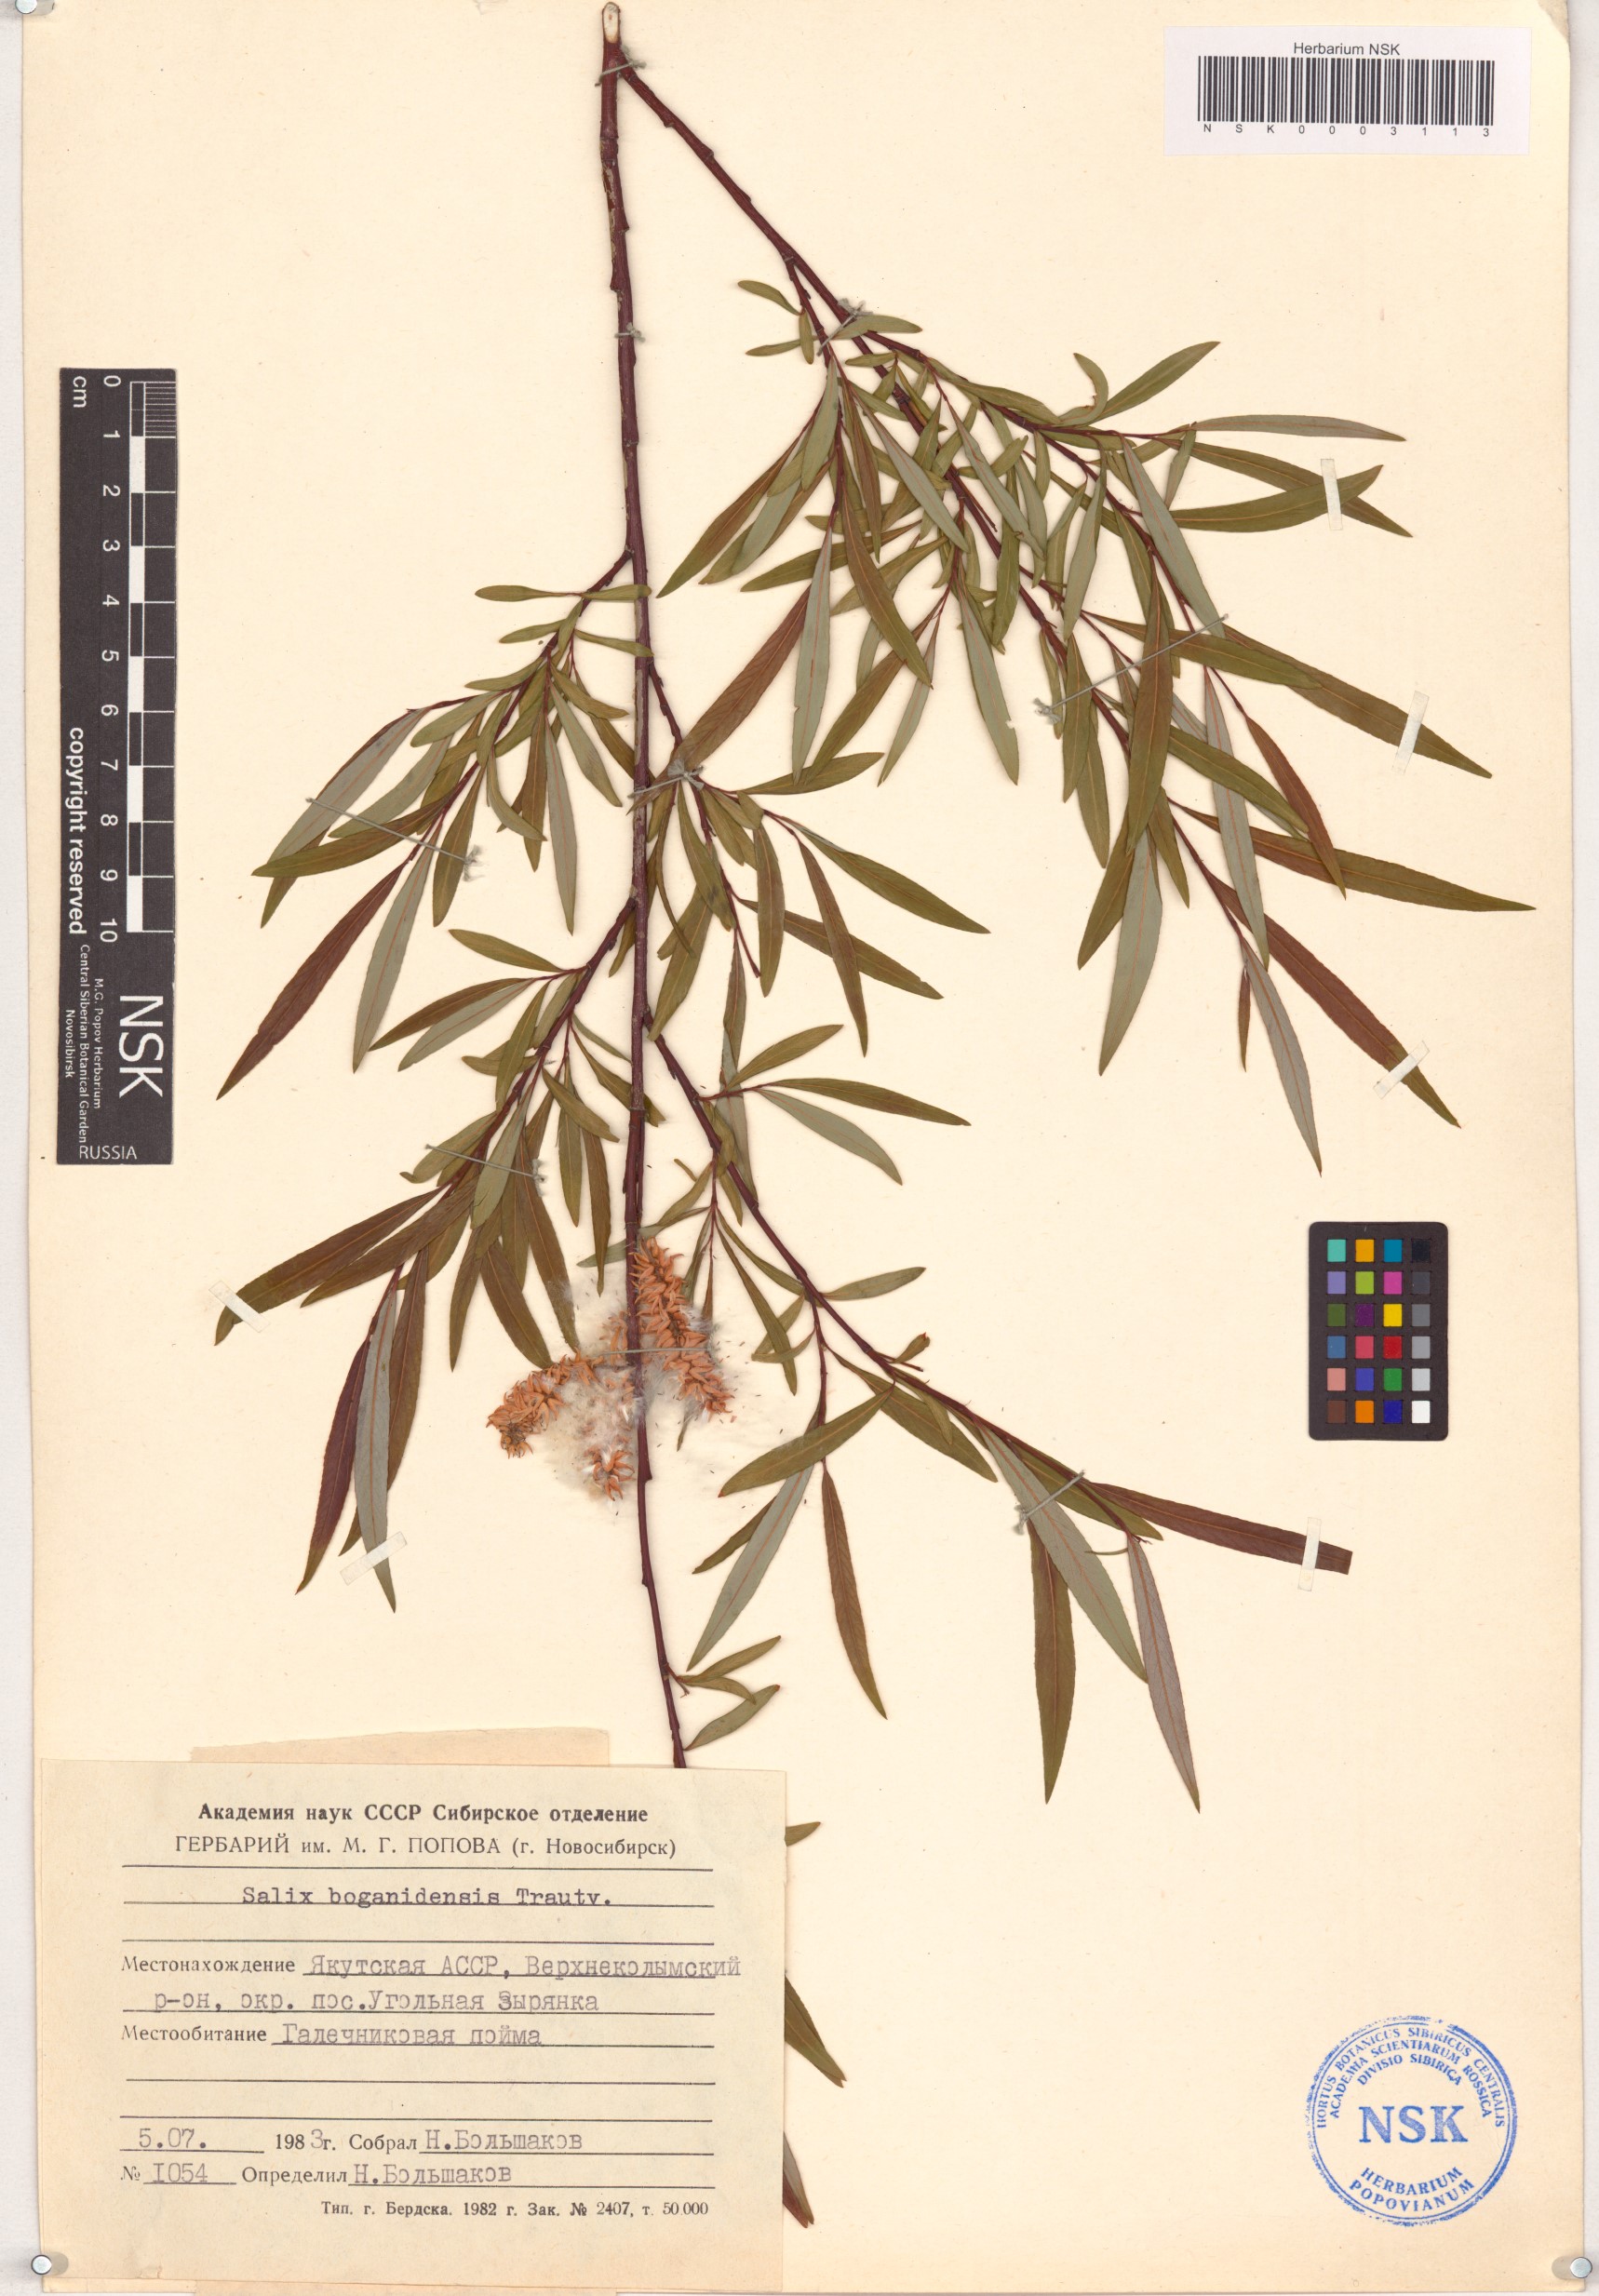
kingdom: Plantae
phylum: Tracheophyta
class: Magnoliopsida
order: Malpighiales
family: Salicaceae
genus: Salix
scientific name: Salix boganidensis
